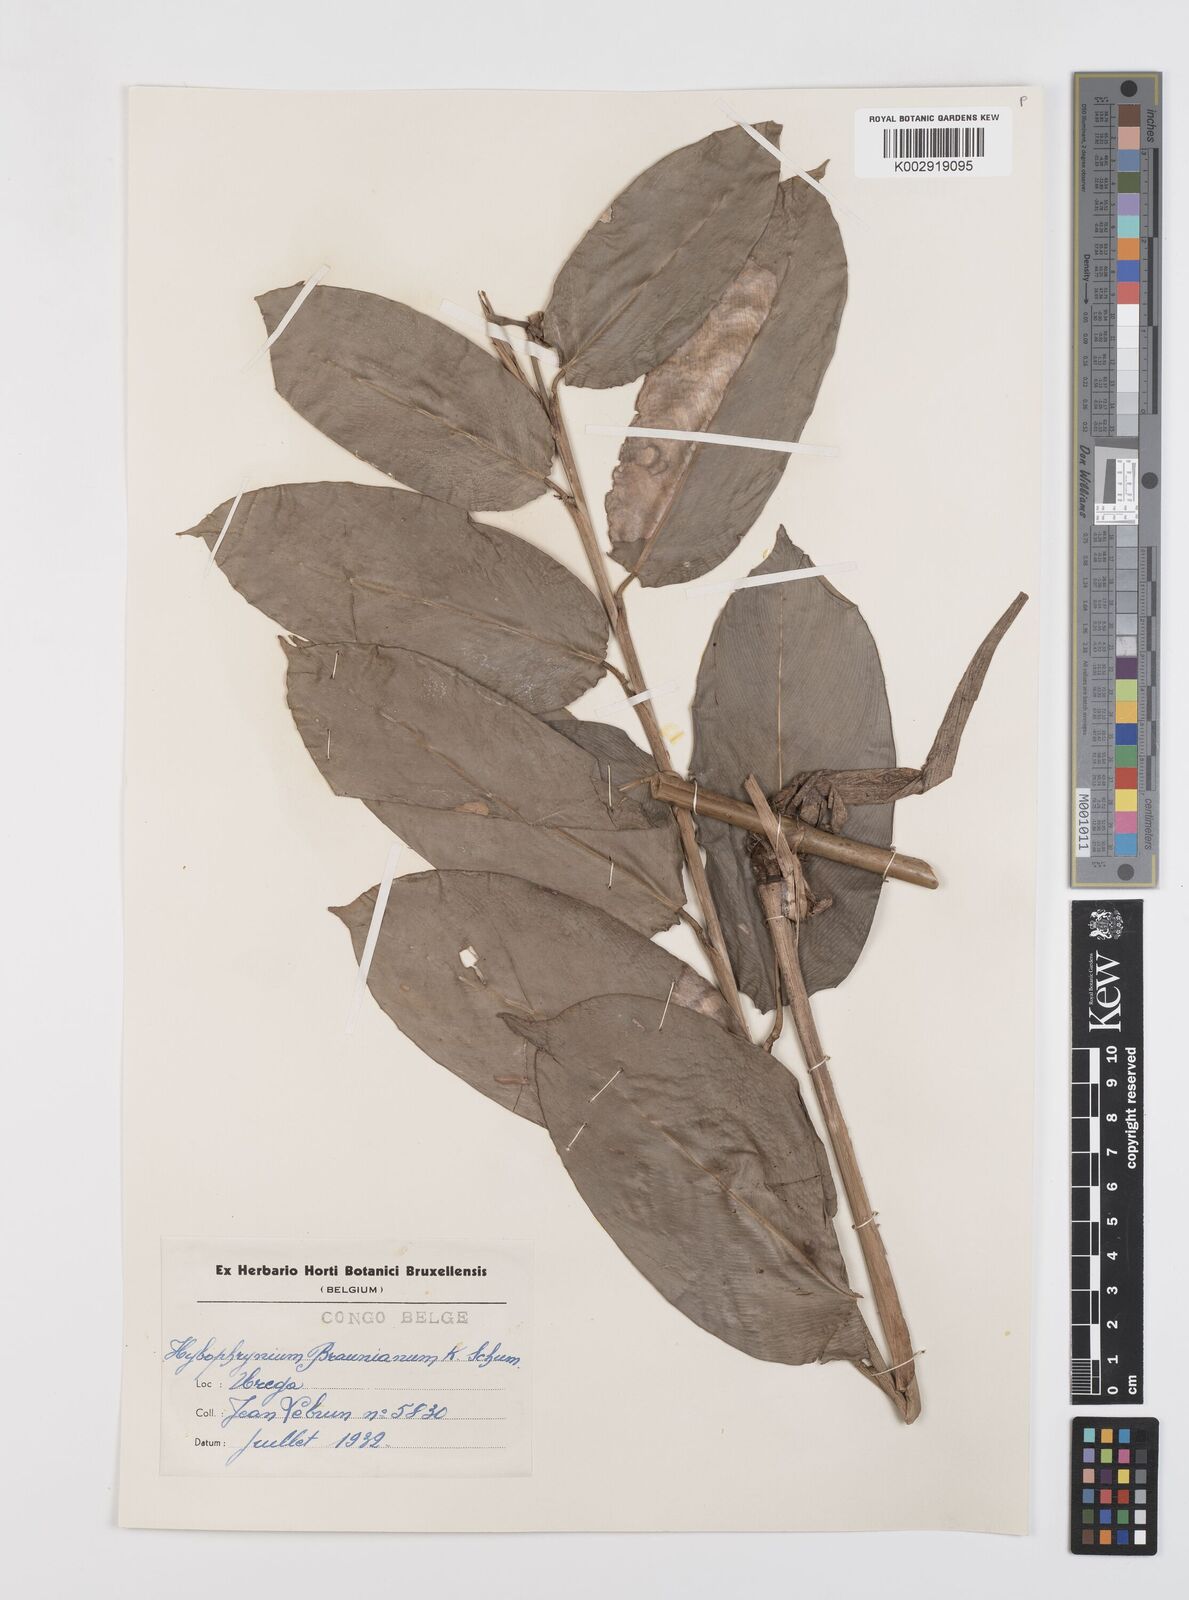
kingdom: Plantae
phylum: Tracheophyta
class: Liliopsida
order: Zingiberales
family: Marantaceae
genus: Trachyphrynium
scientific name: Trachyphrynium braunianum
